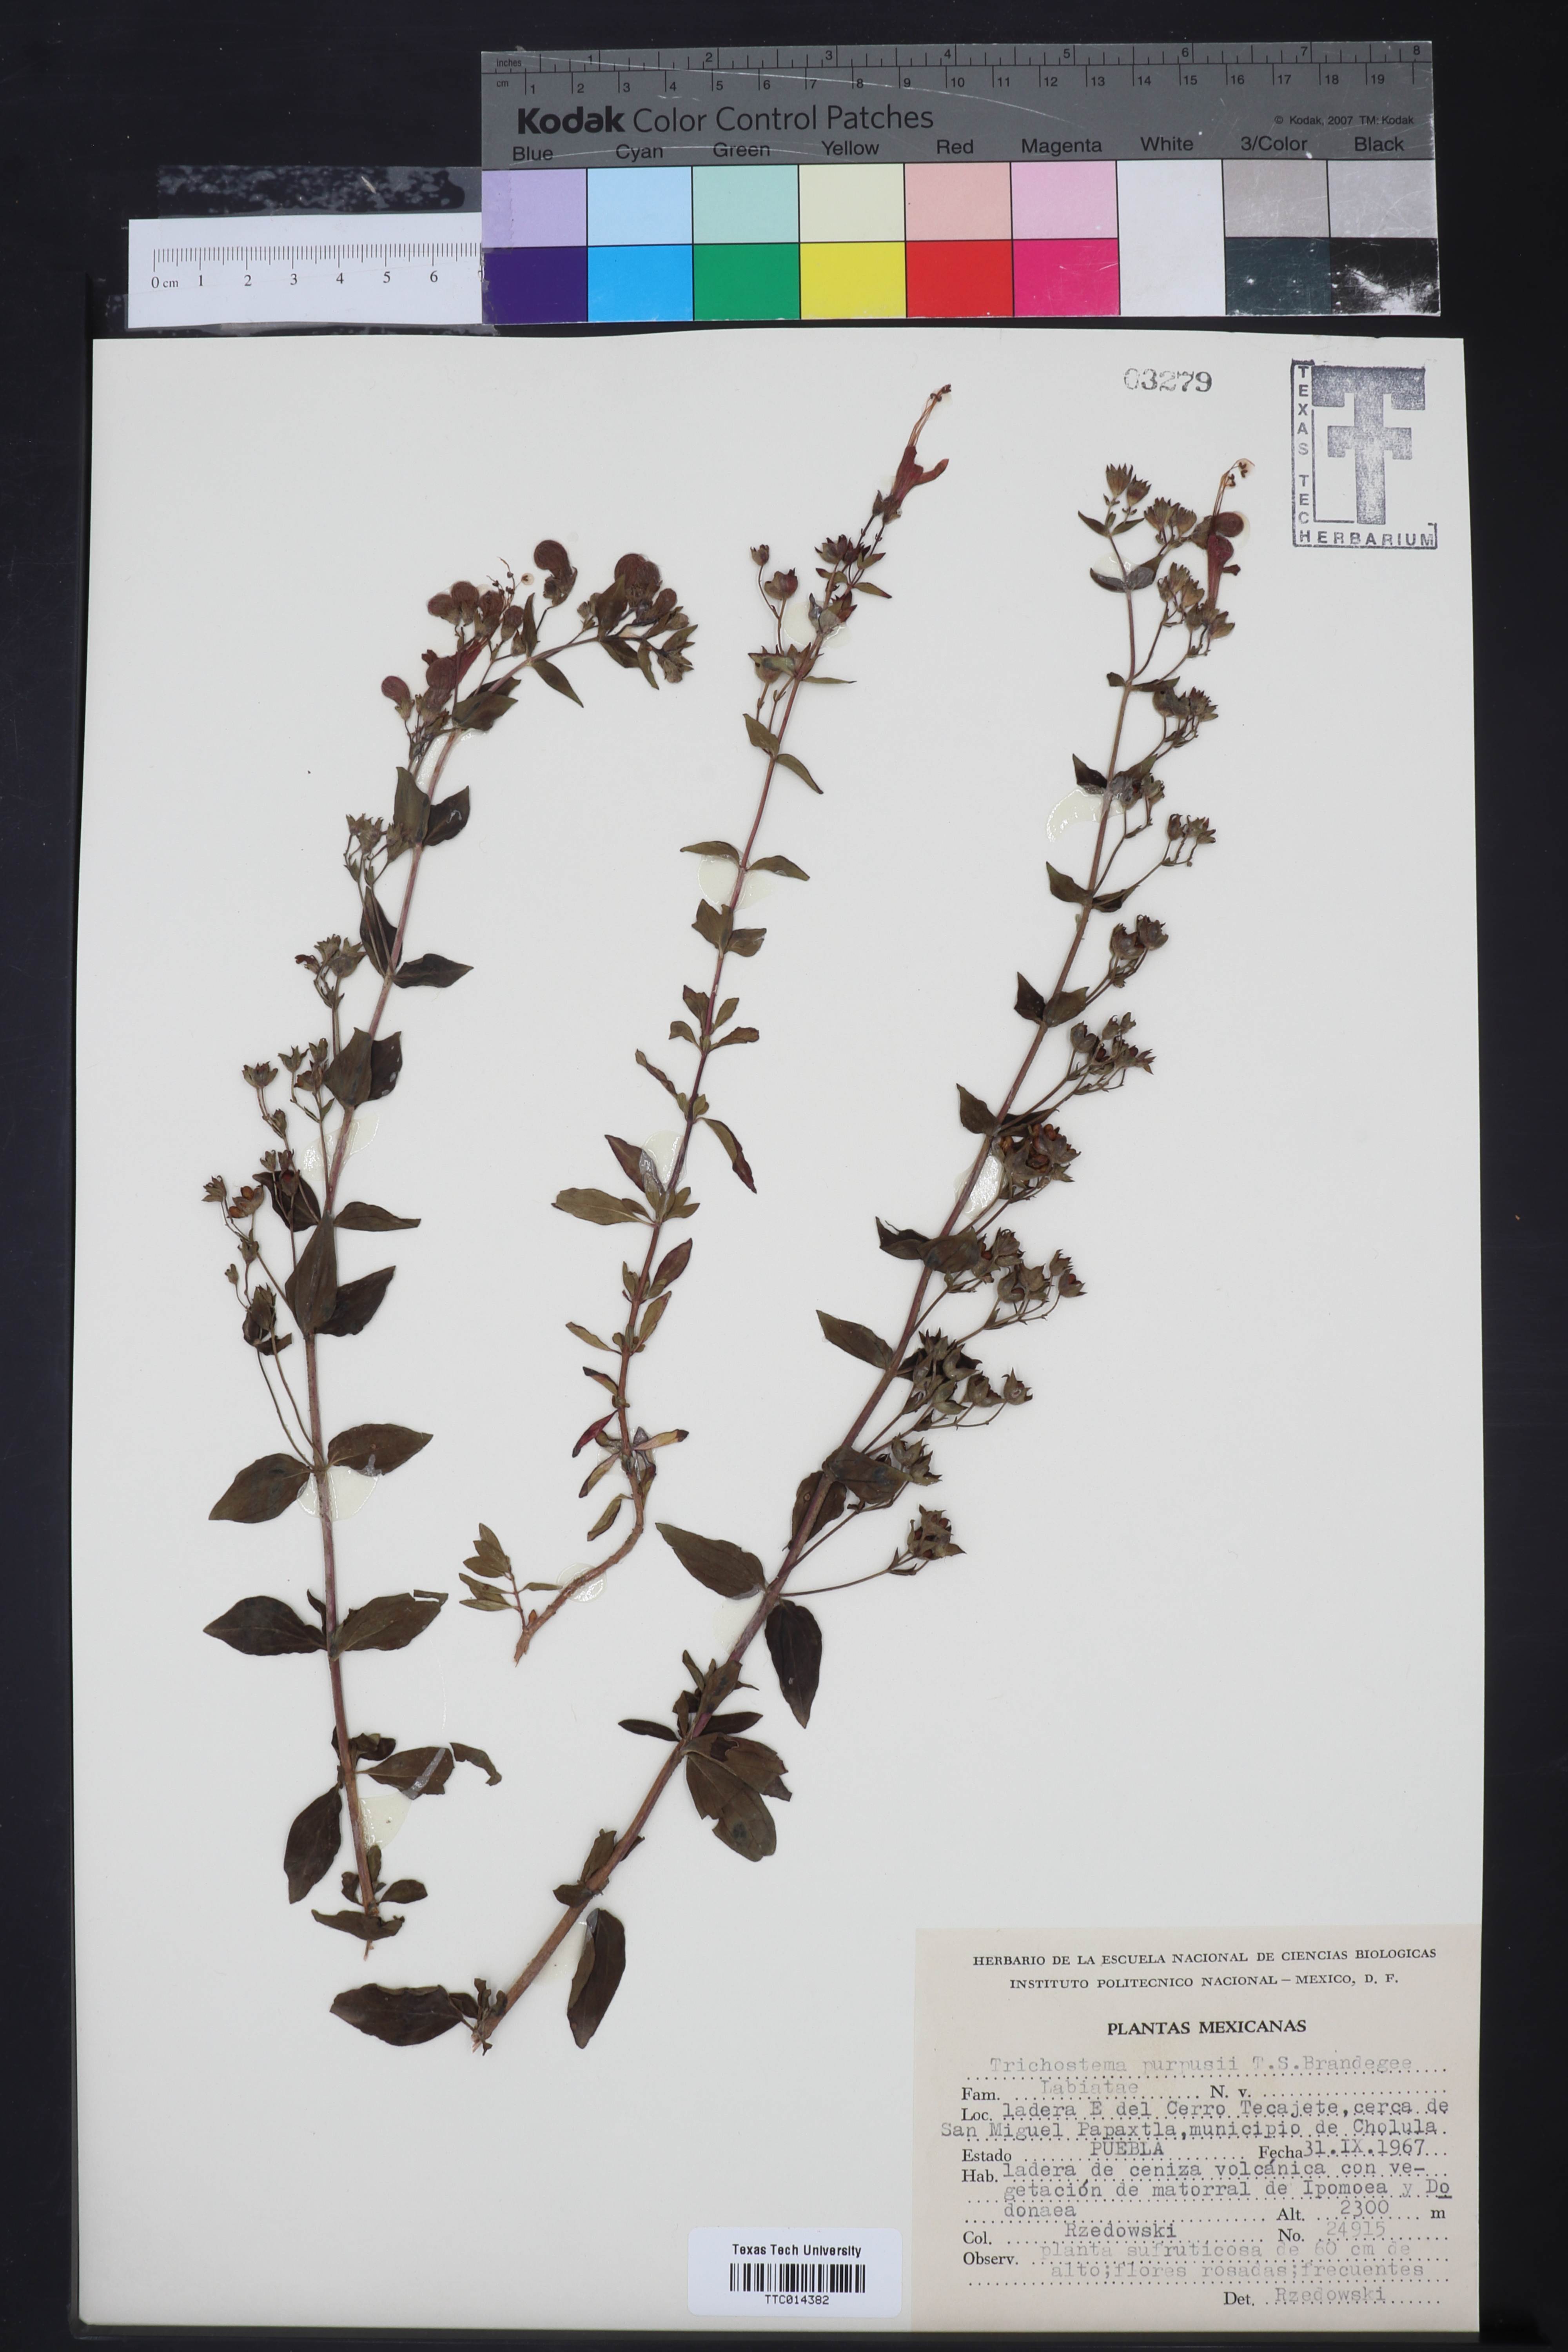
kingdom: Plantae
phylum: Tracheophyta
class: Magnoliopsida
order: Lamiales
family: Lamiaceae
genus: Trichostema
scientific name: Trichostema purpusii
